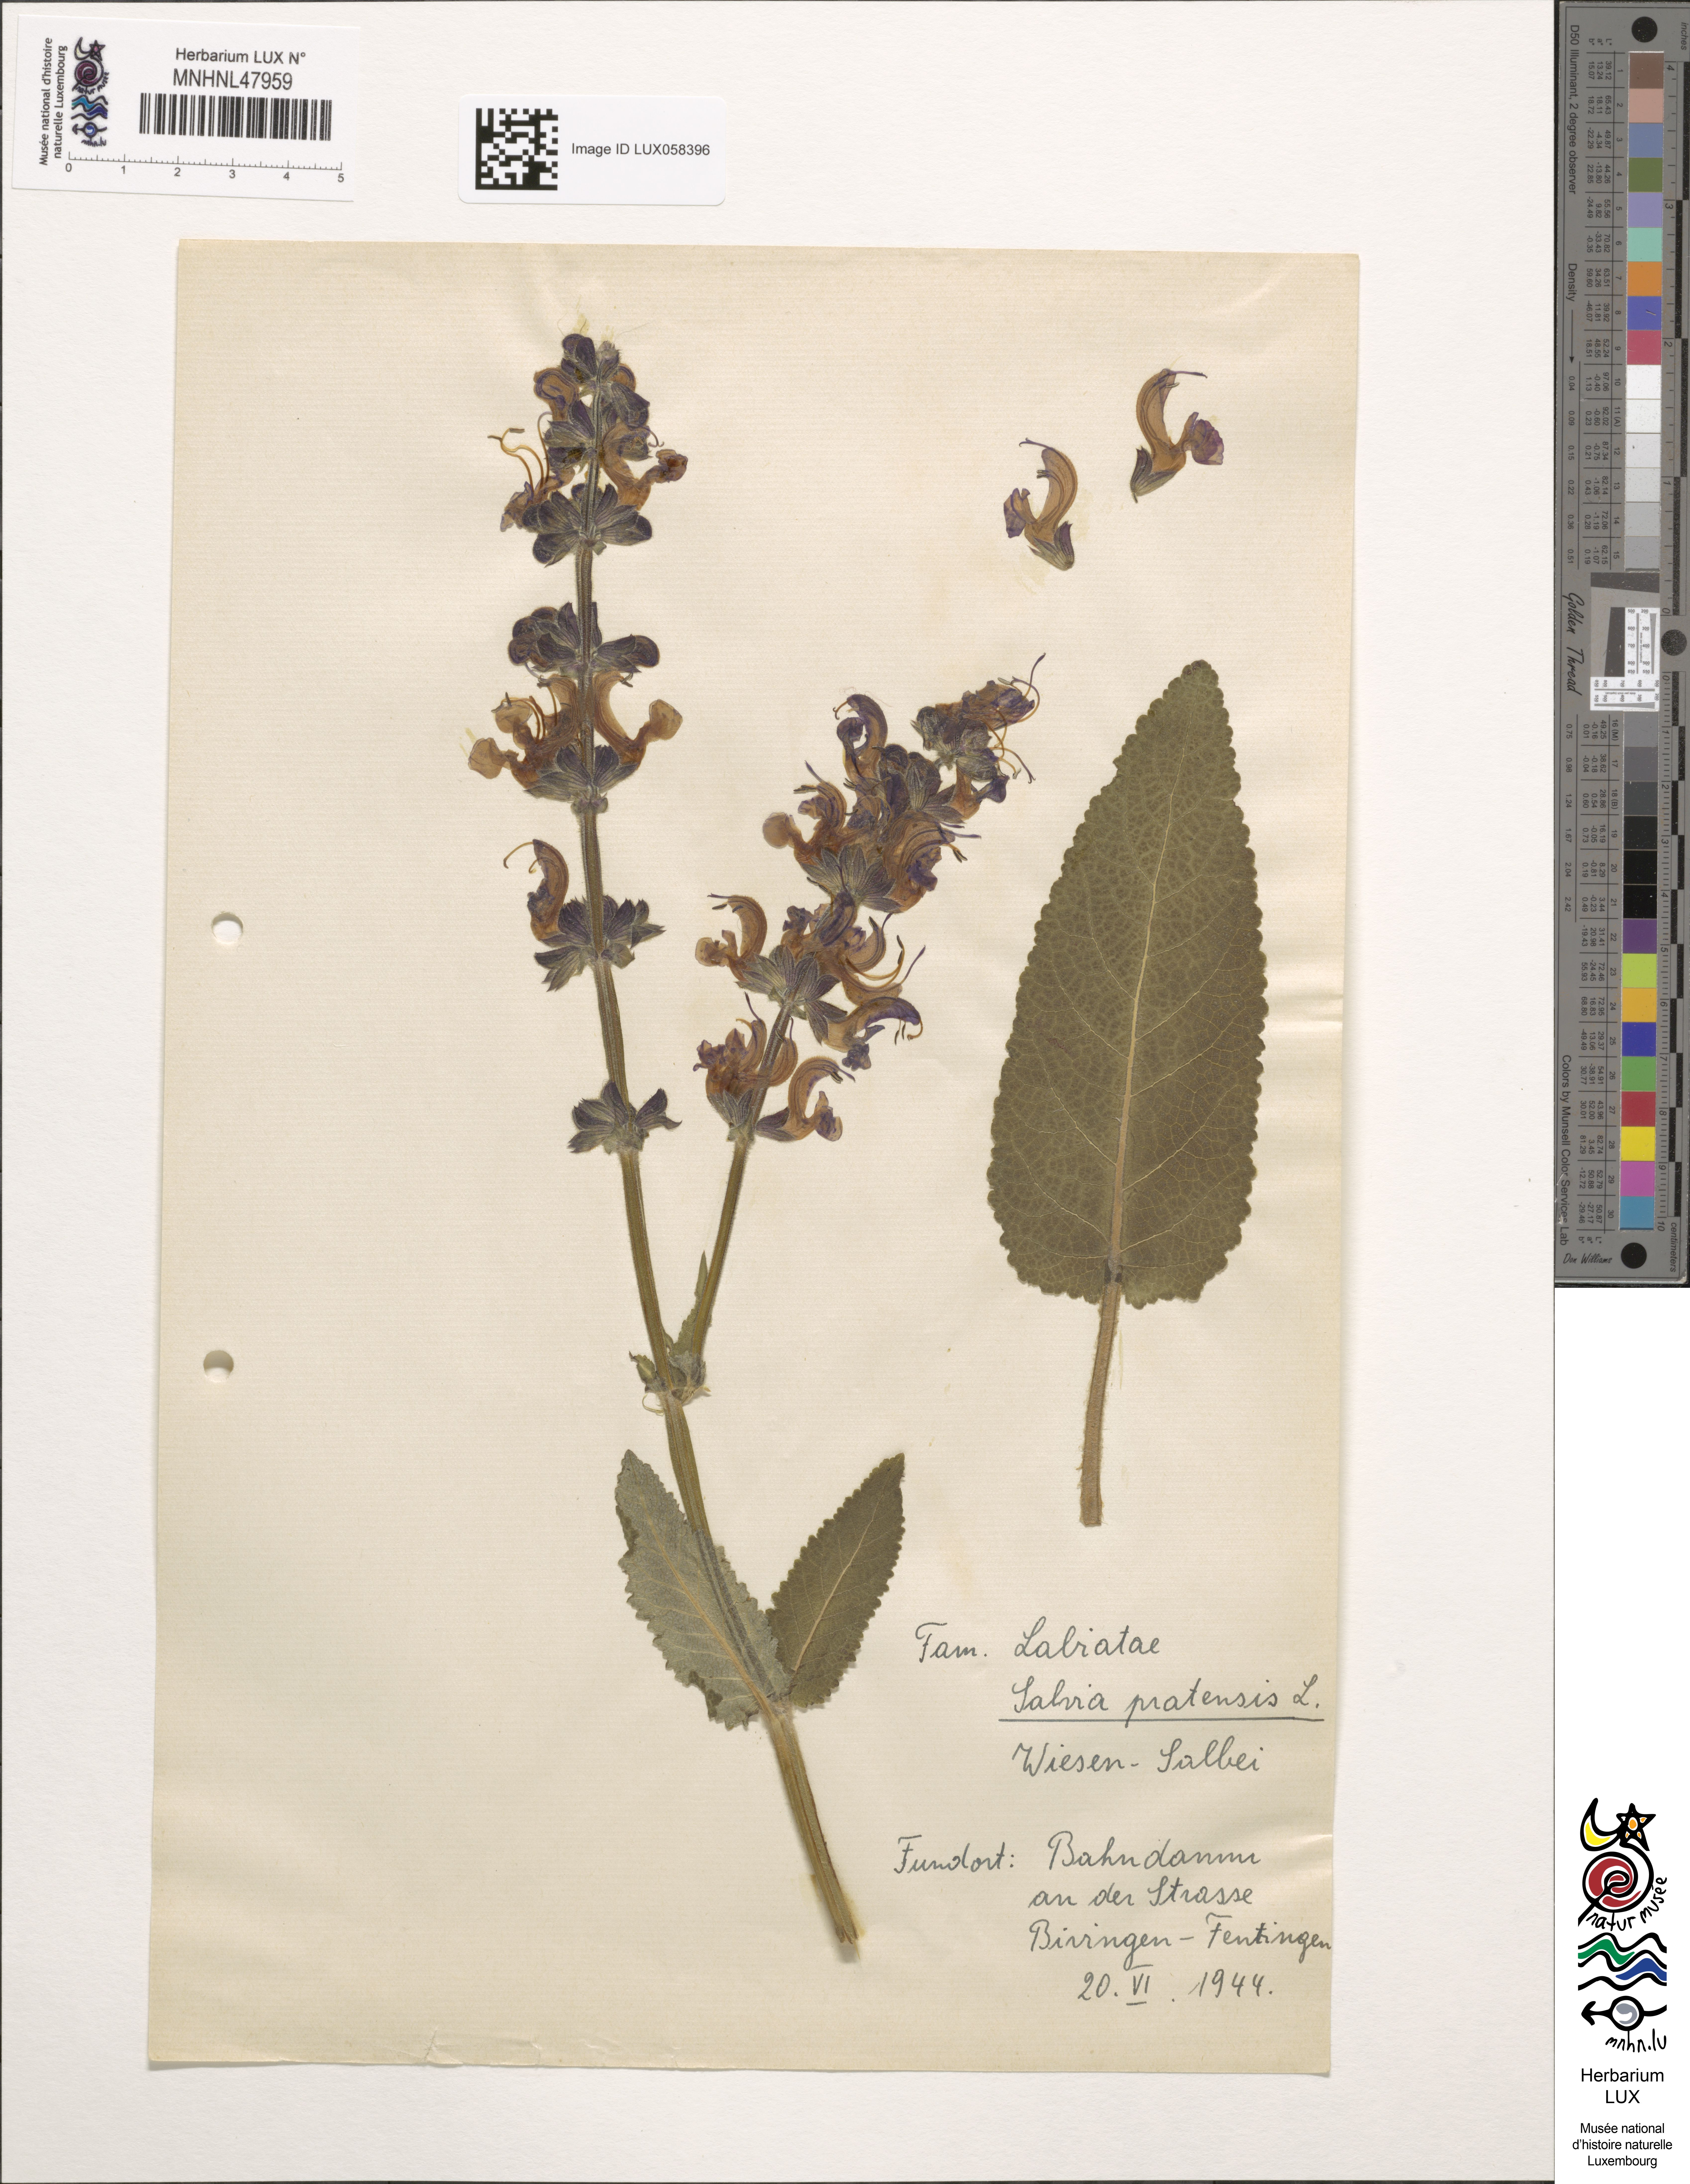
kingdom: Plantae
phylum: Tracheophyta
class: Magnoliopsida
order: Lamiales
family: Lamiaceae
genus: Salvia
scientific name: Salvia pratensis
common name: Meadow sage
